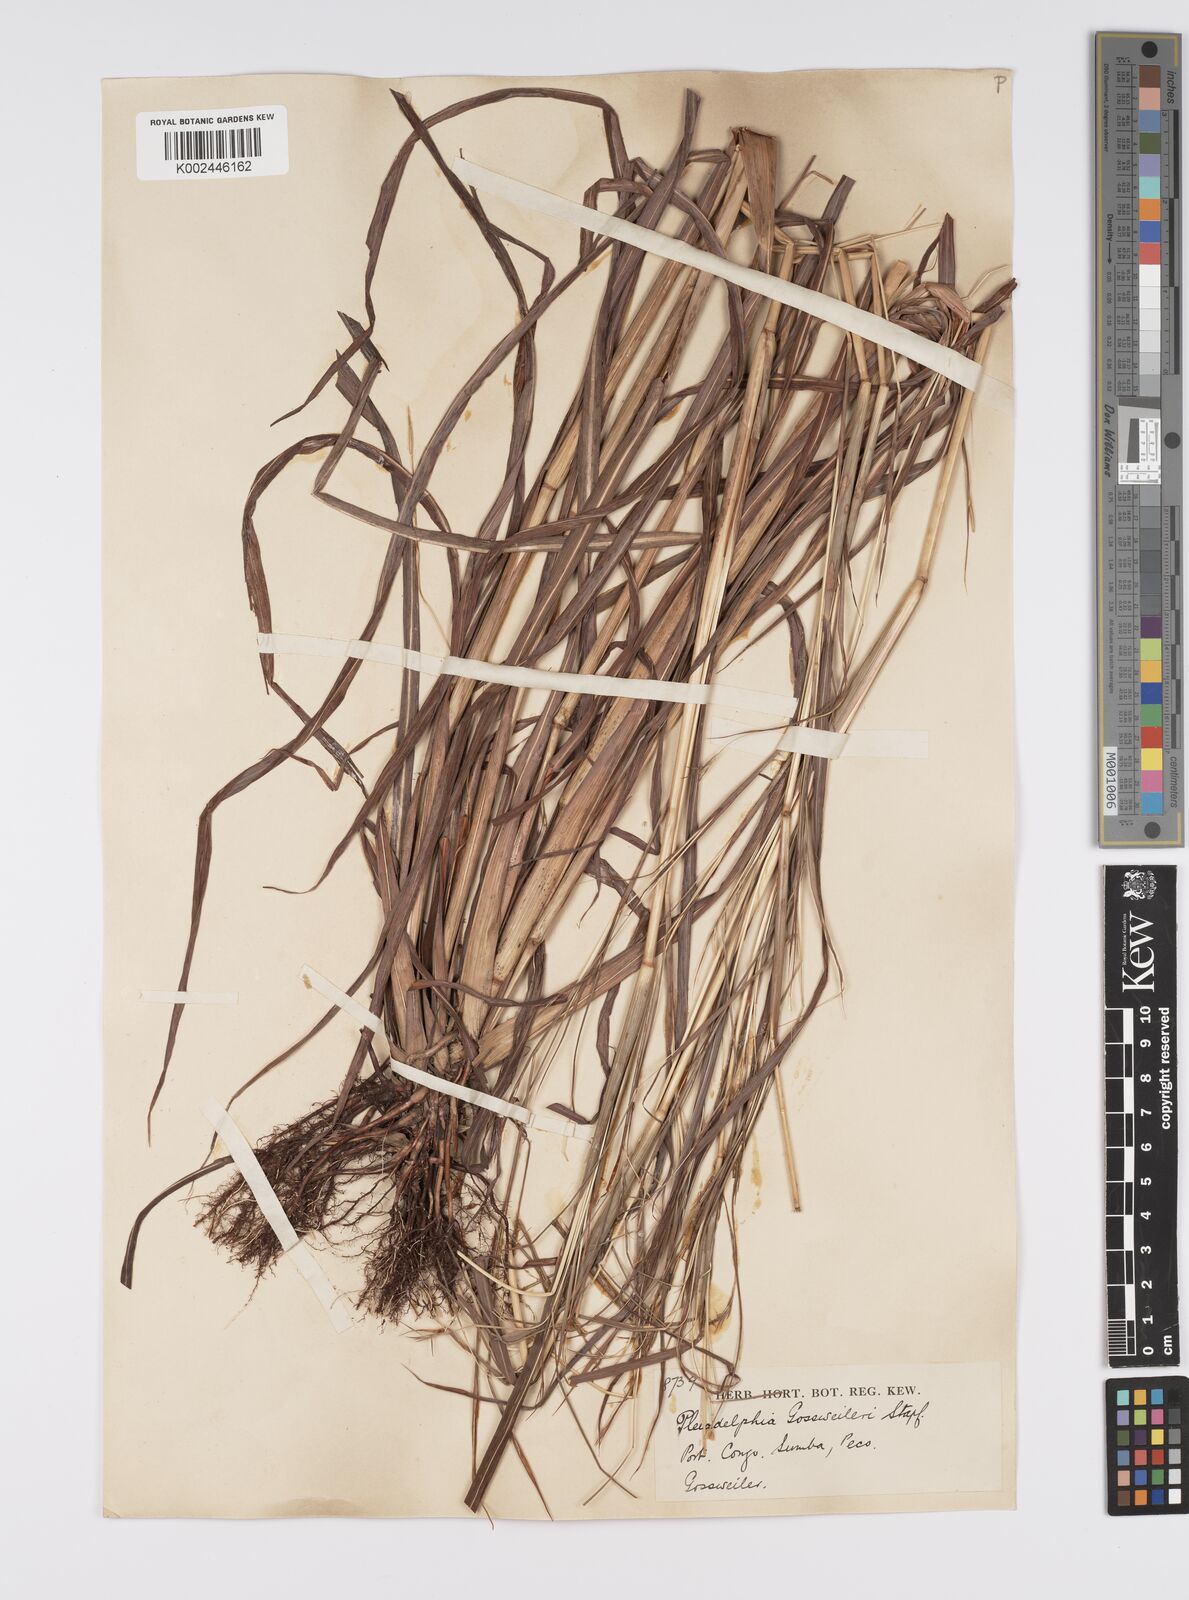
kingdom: Plantae
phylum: Tracheophyta
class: Liliopsida
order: Poales
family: Poaceae
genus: Elymandra
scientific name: Elymandra gossweileri
